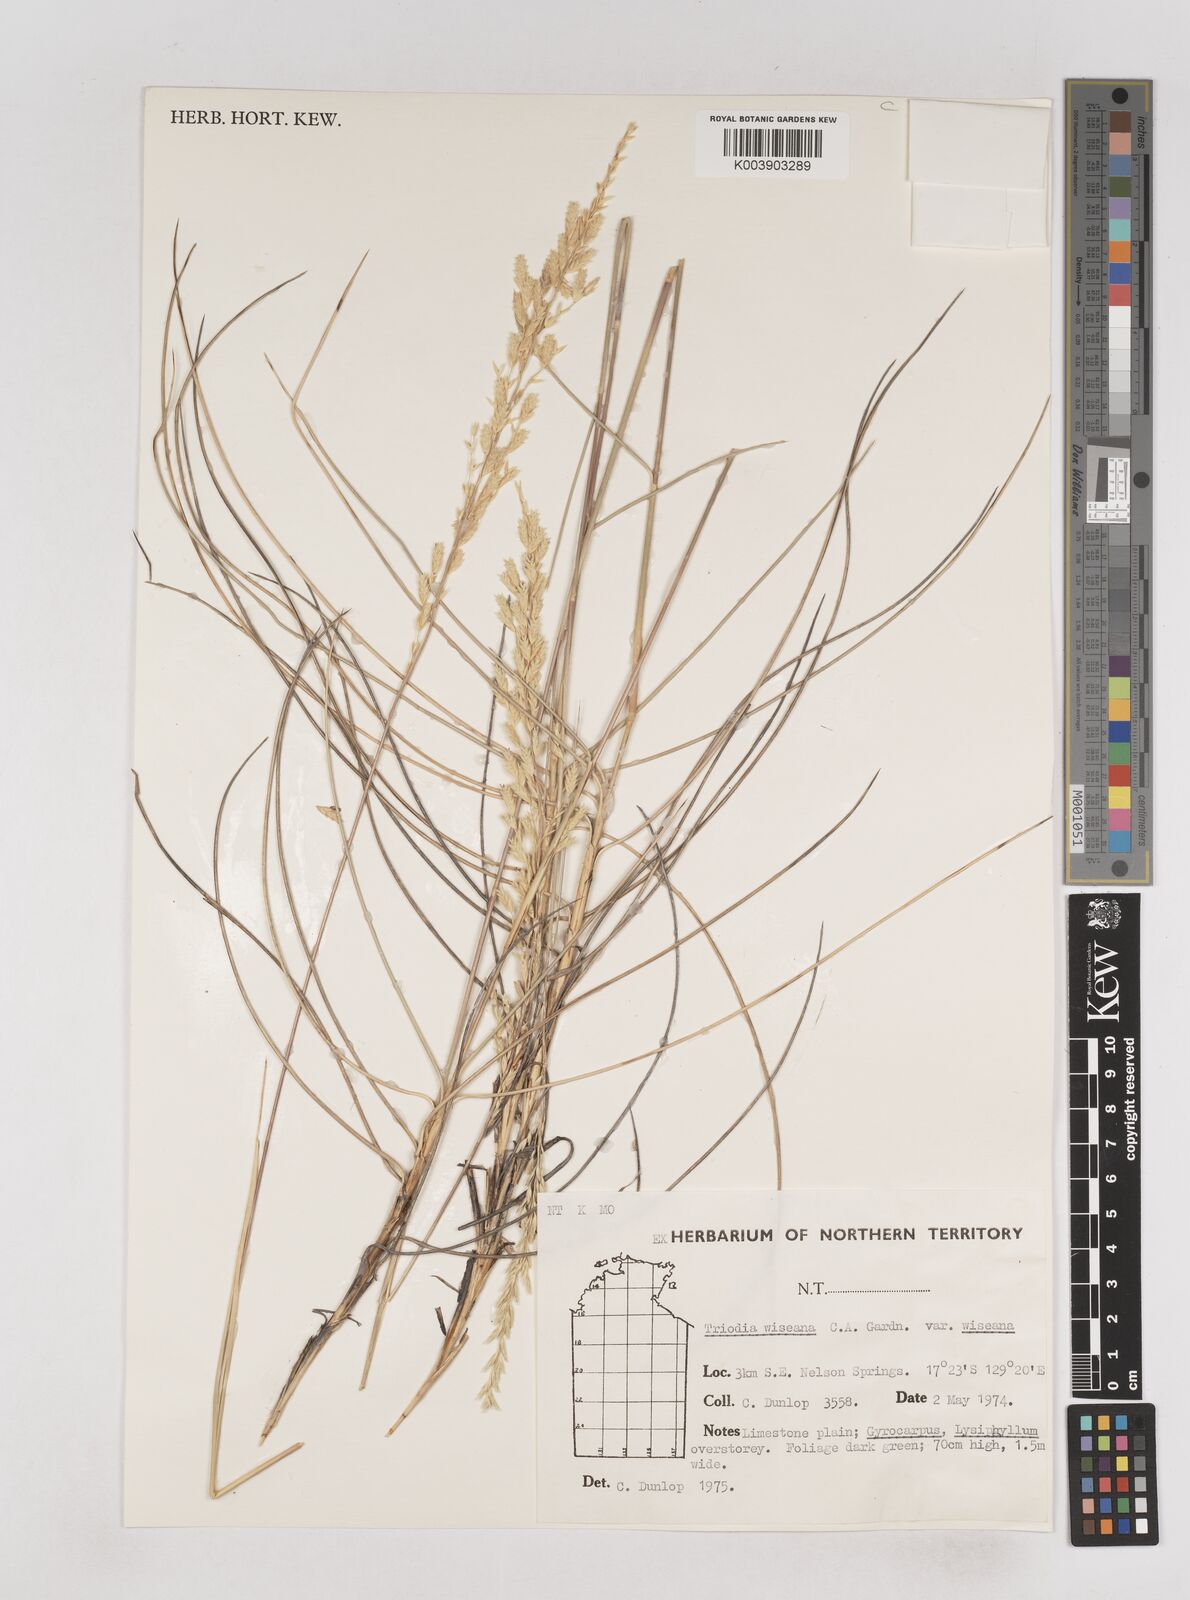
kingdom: Plantae
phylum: Tracheophyta
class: Liliopsida
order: Poales
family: Poaceae
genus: Triodia
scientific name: Triodia wiseana
